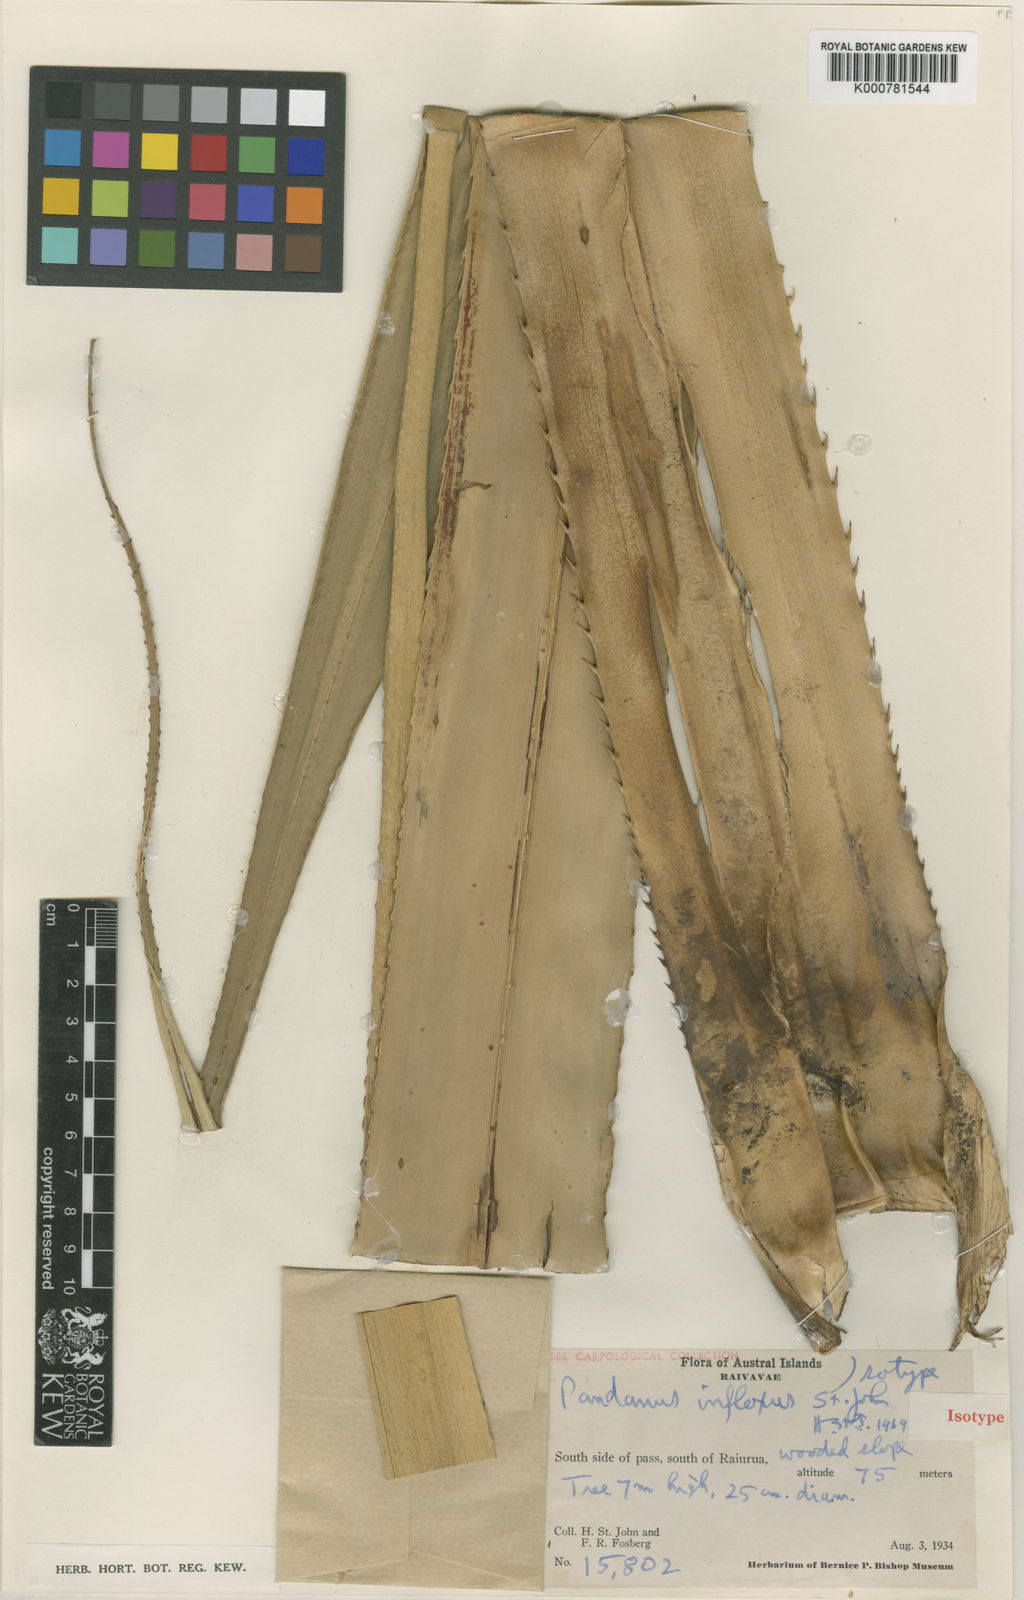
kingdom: Plantae
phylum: Tracheophyta
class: Liliopsida
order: Pandanales
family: Pandanaceae
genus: Pandanus
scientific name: Pandanus
